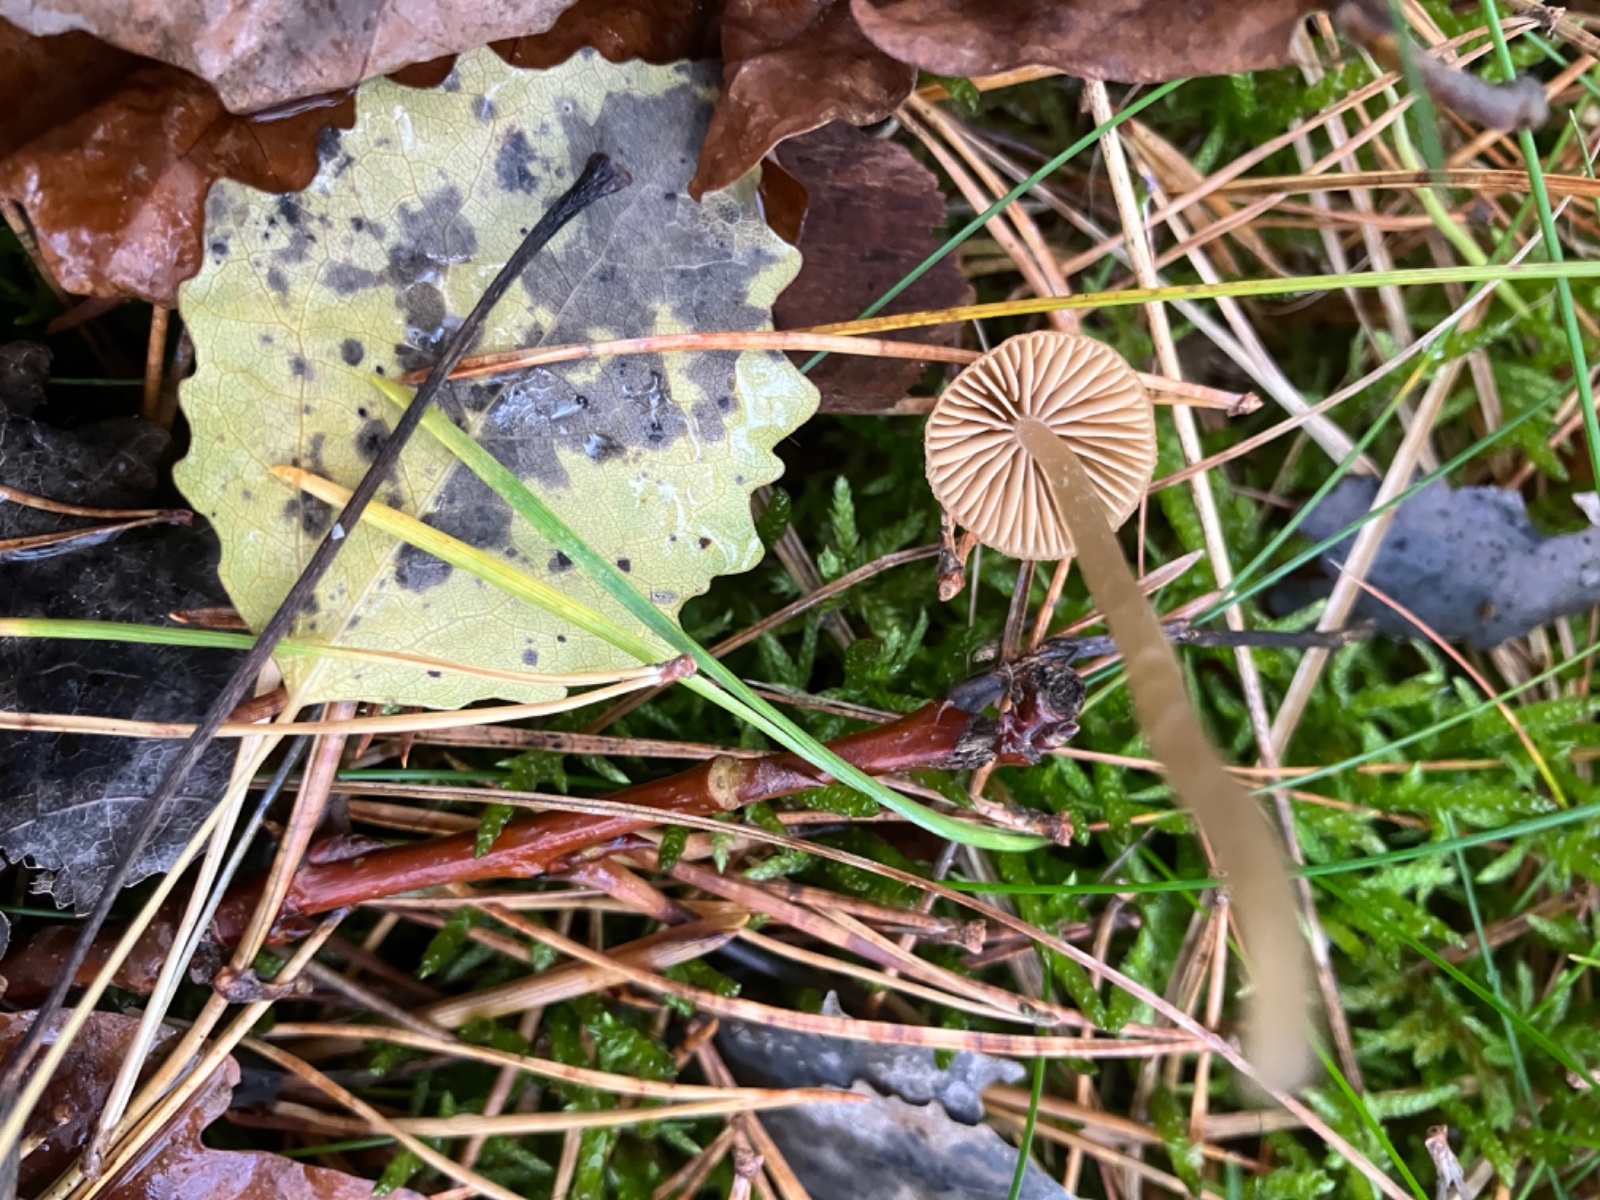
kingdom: Fungi
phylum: Basidiomycota
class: Agaricomycetes
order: Agaricales
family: Hymenogastraceae
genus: Galerina
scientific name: Galerina clavata
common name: kær-hjelmhat
